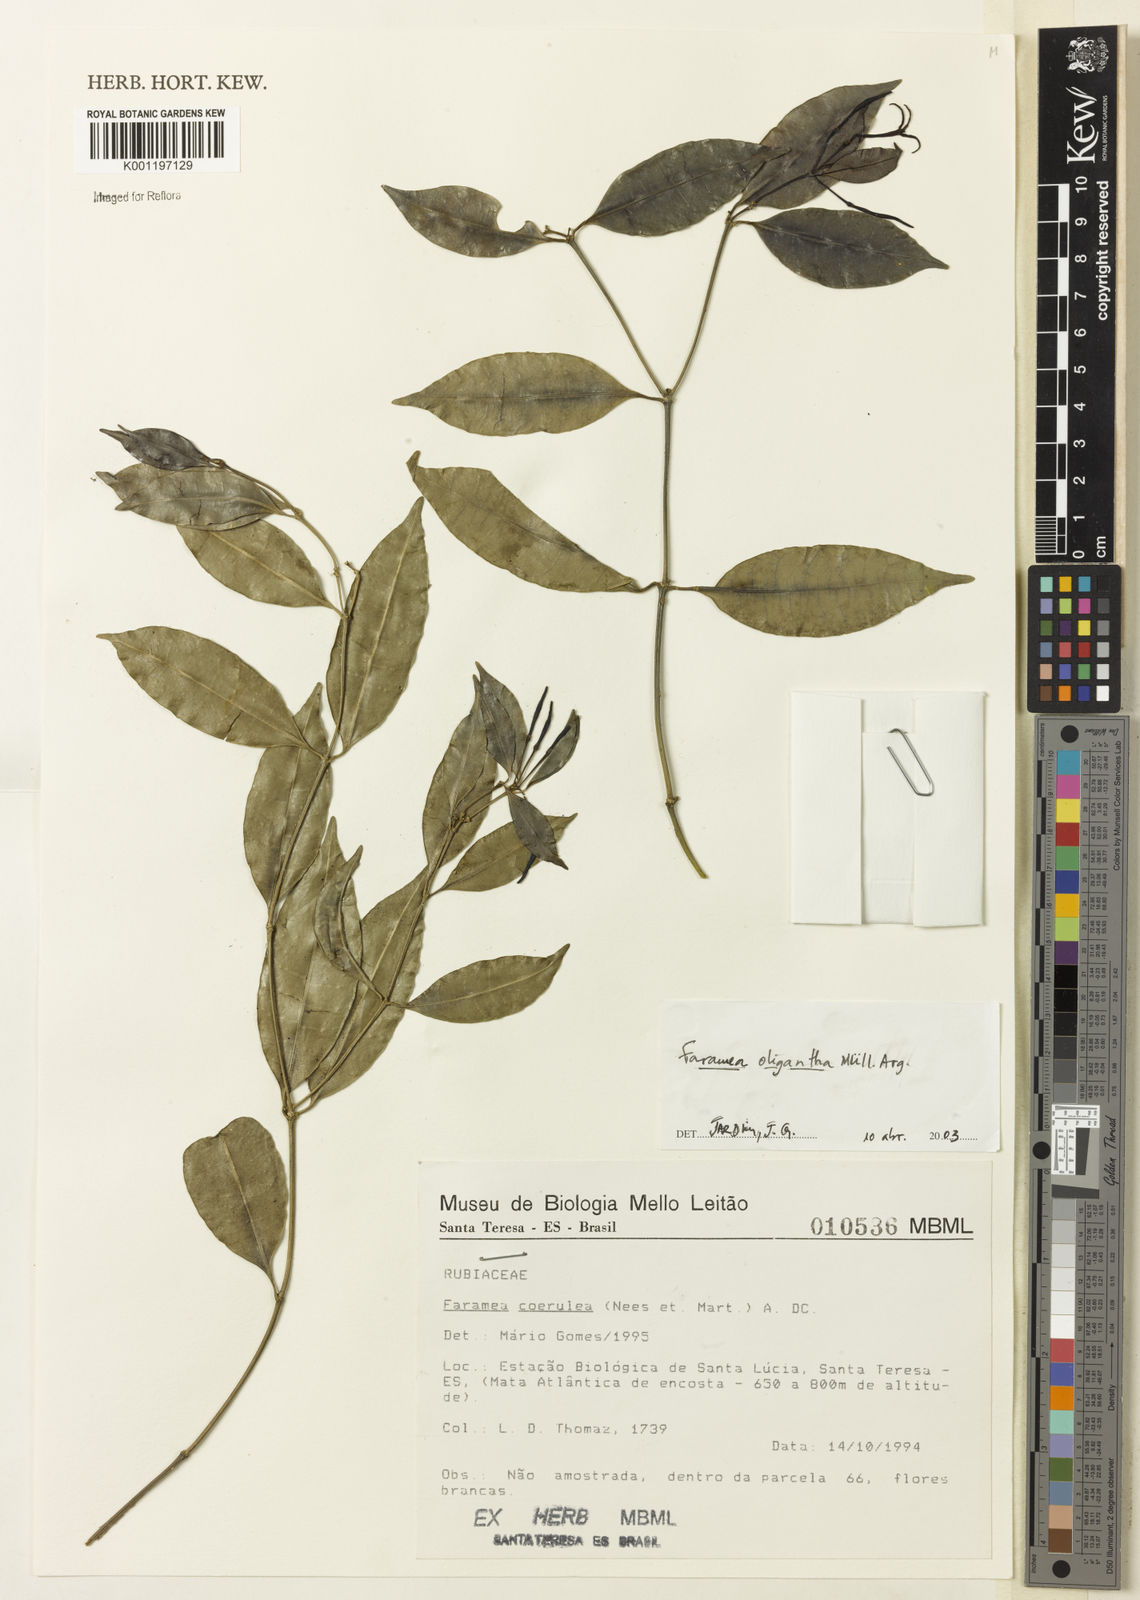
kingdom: Plantae
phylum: Tracheophyta
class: Magnoliopsida
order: Gentianales
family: Rubiaceae
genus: Faramea
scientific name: Faramea
